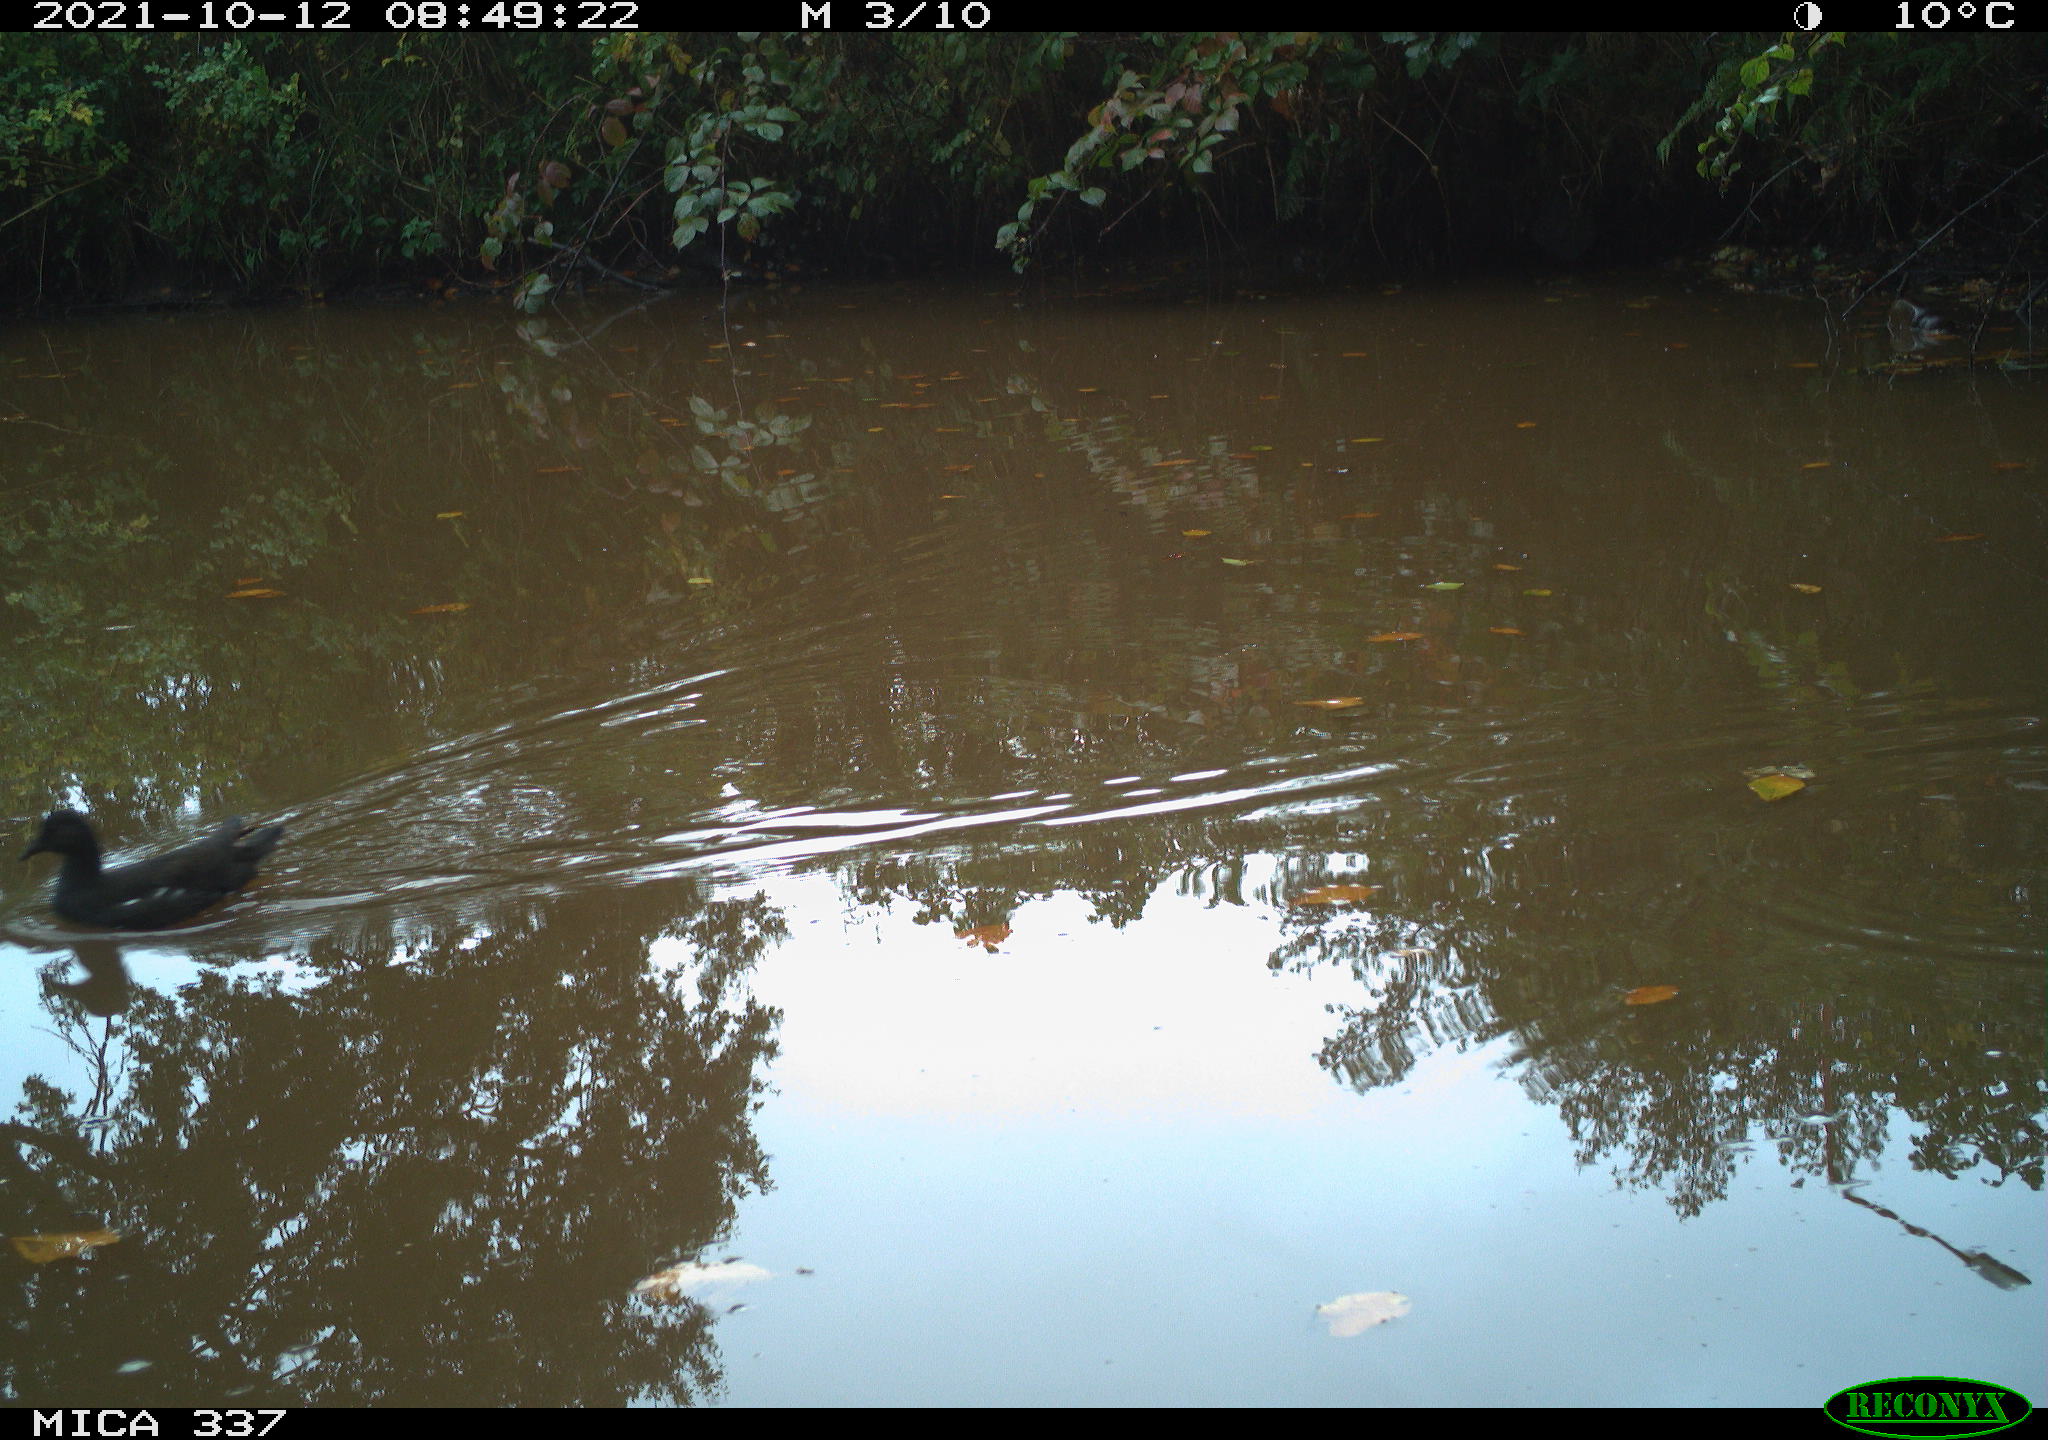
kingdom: Animalia
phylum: Chordata
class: Aves
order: Gruiformes
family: Rallidae
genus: Gallinula
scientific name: Gallinula chloropus
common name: Common moorhen
